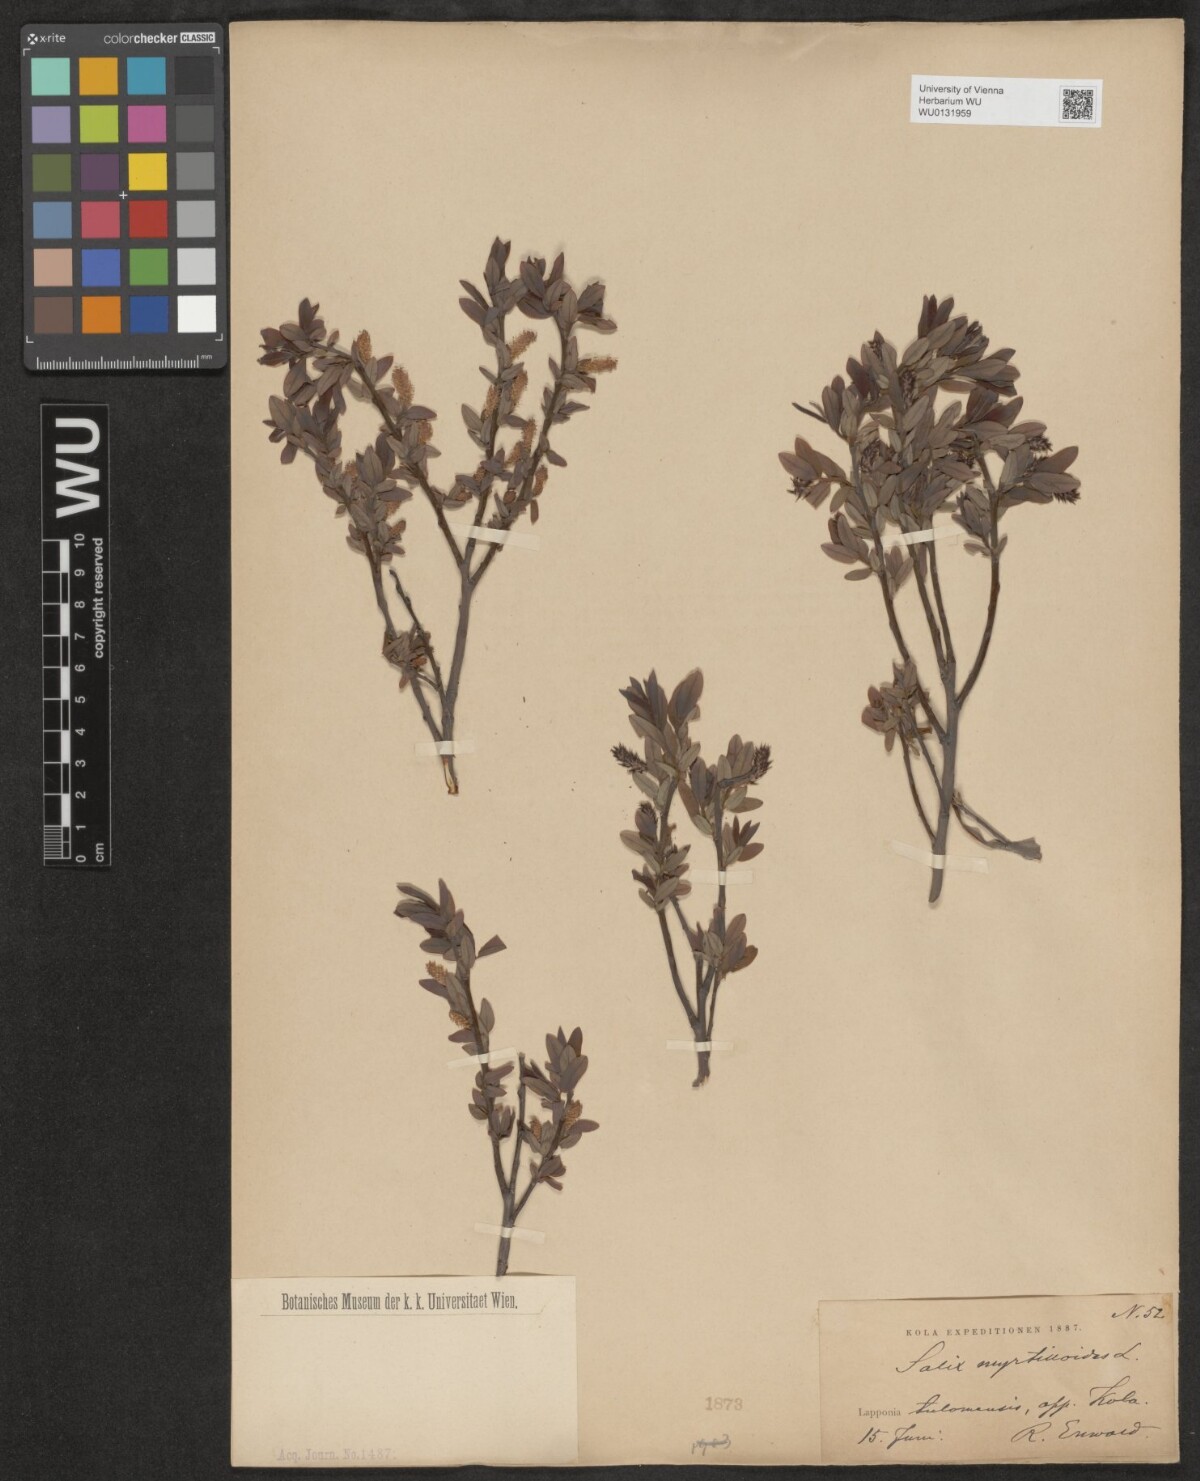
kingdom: Plantae
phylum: Tracheophyta
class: Magnoliopsida
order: Malpighiales
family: Salicaceae
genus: Salix
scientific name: Salix myrtilloides
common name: Myrtle-leaved willow
